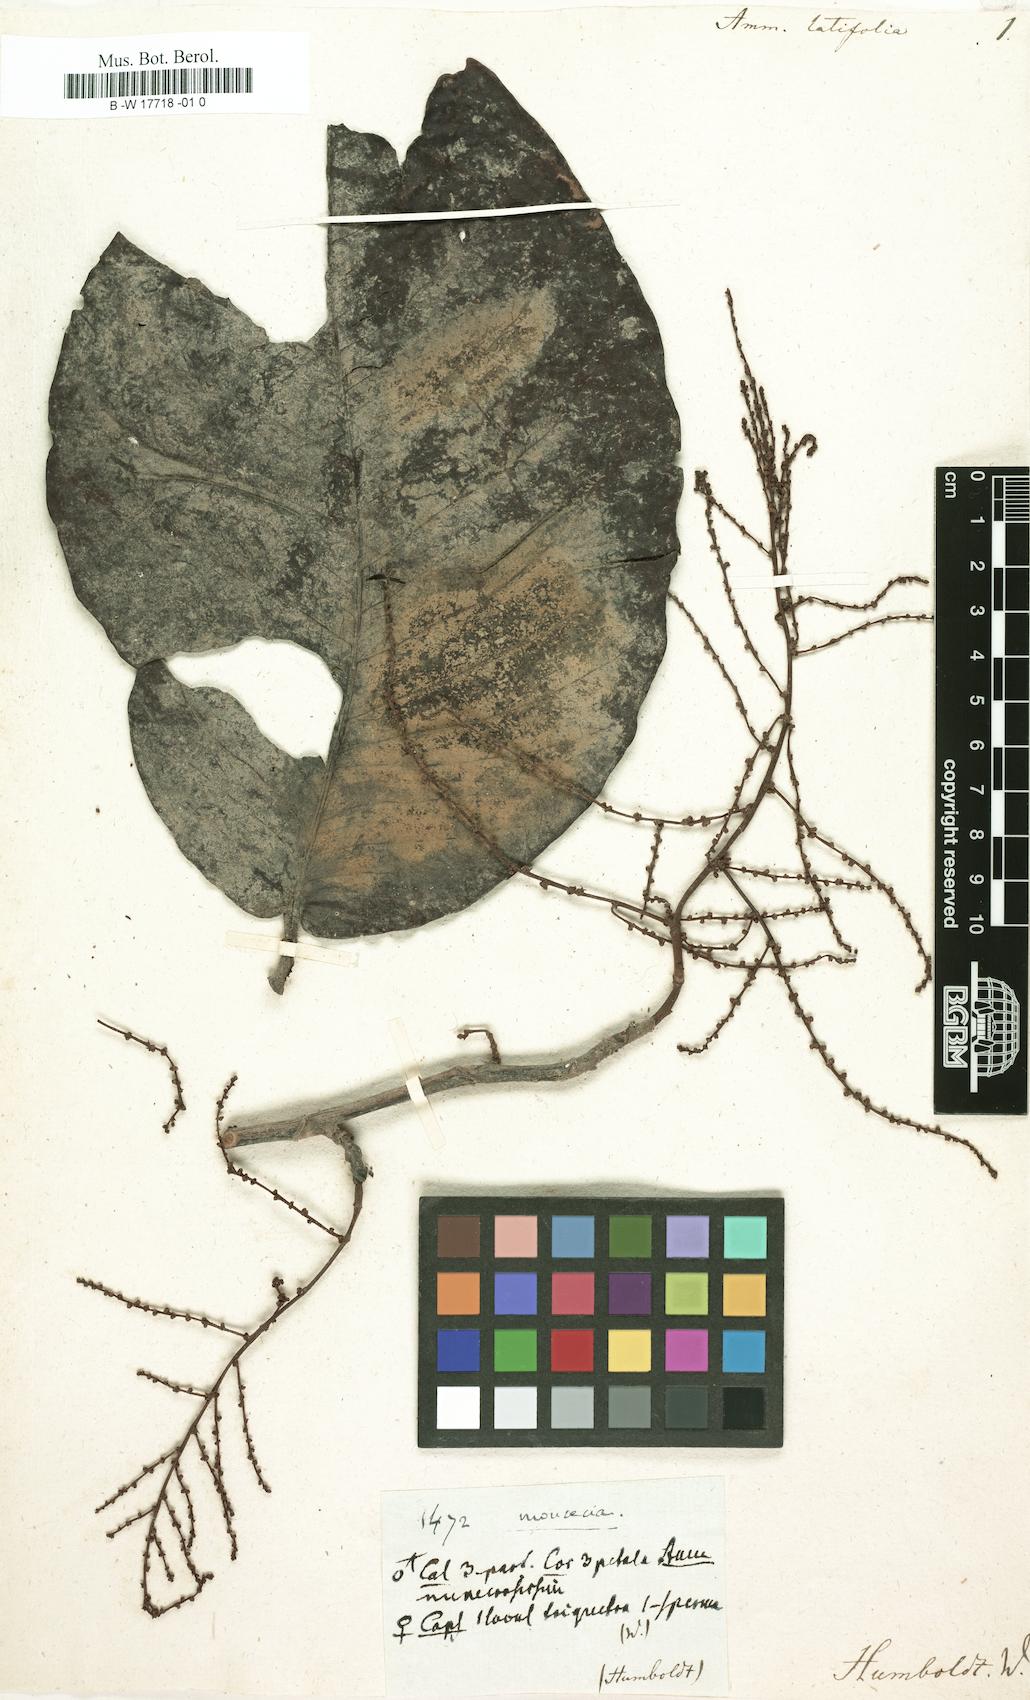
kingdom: Plantae
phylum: Tracheophyta
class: Magnoliopsida
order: Caryophyllales
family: Polygonaceae
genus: Symmeria
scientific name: Symmeria paniculata
